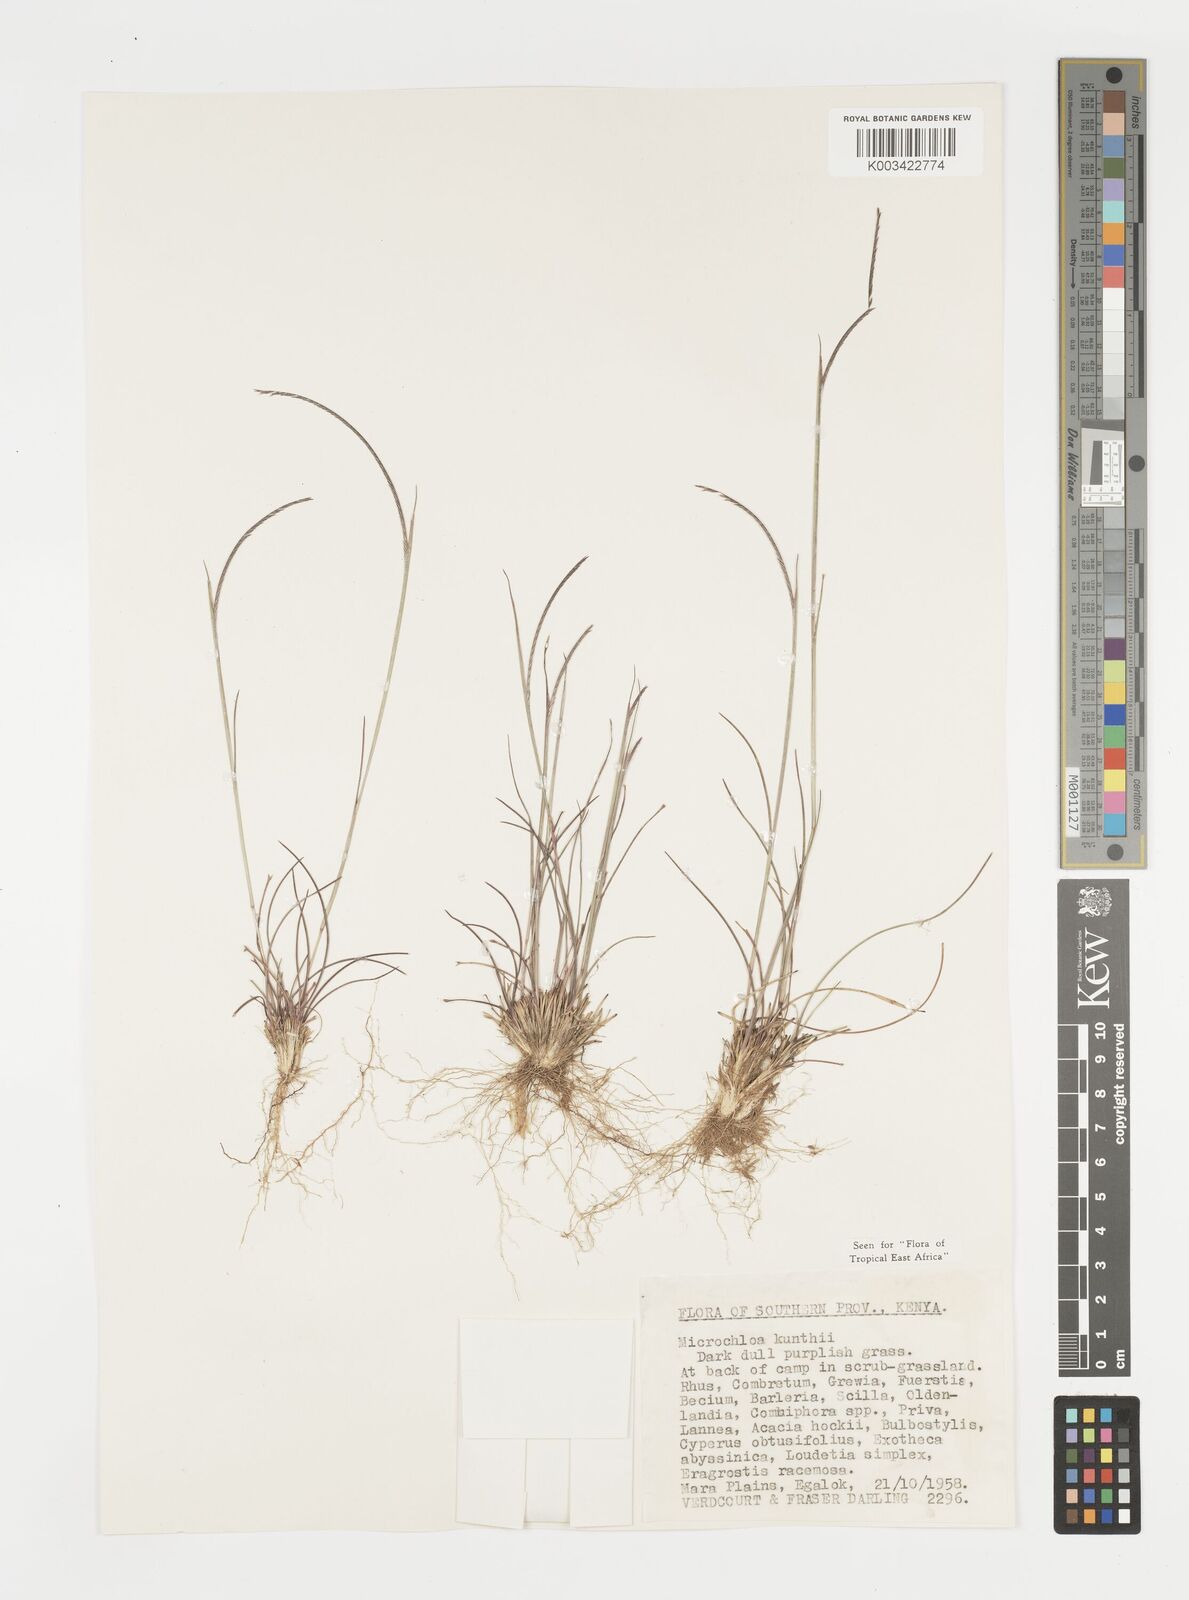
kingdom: Plantae
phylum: Tracheophyta
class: Liliopsida
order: Poales
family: Poaceae
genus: Microchloa
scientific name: Microchloa kunthii
